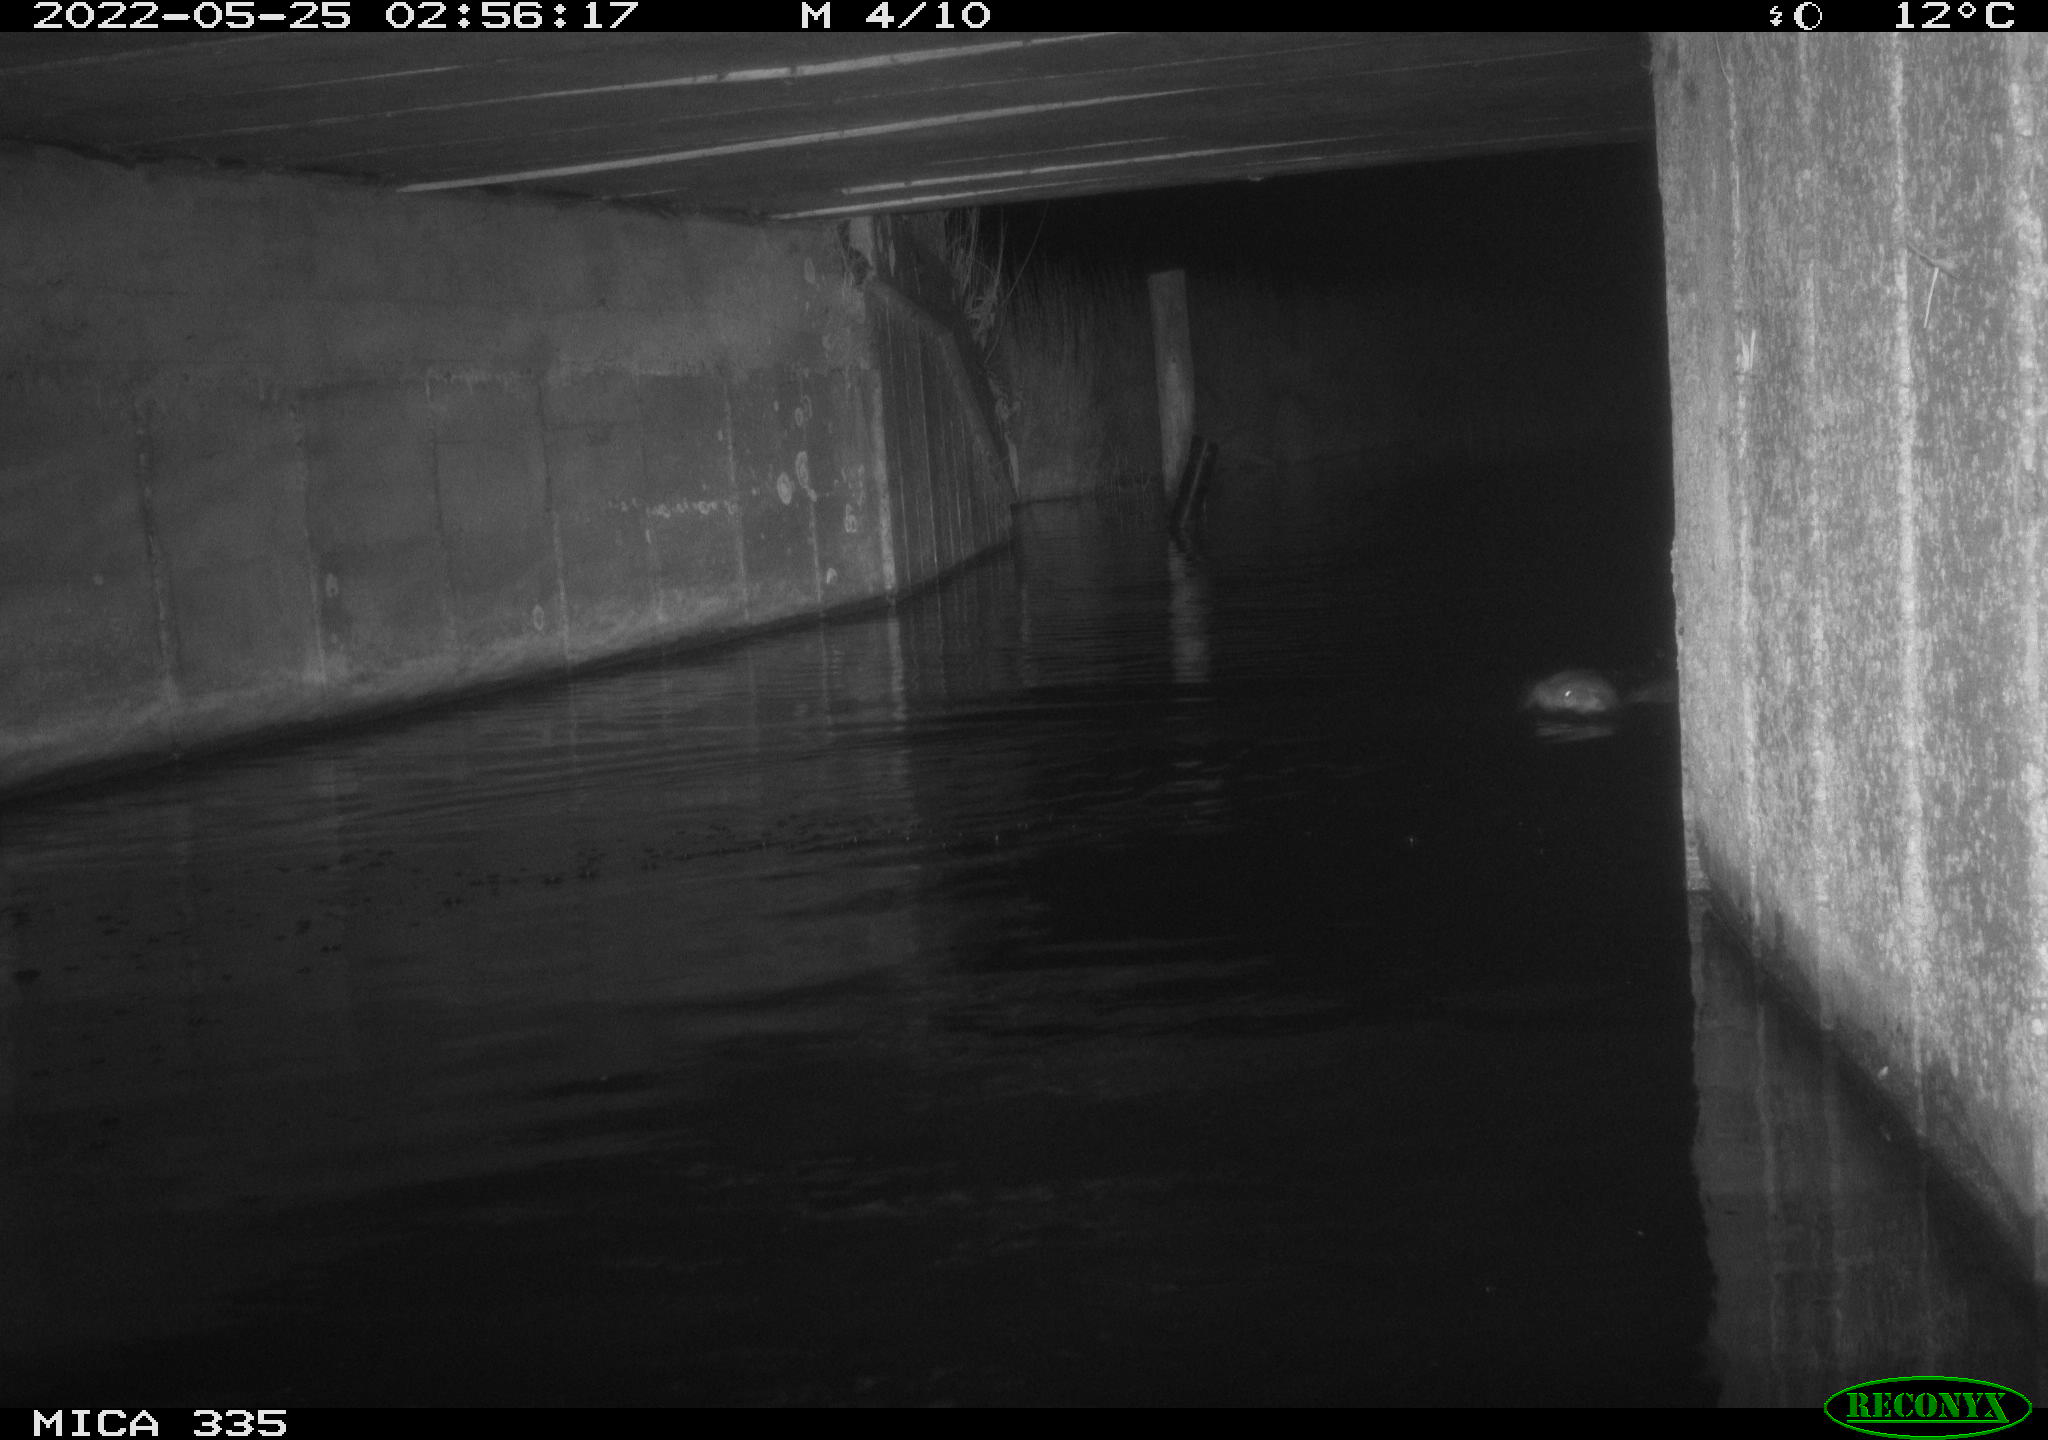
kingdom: Animalia
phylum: Chordata
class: Mammalia
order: Carnivora
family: Mustelidae
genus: Lutra
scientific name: Lutra lutra
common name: European otter
